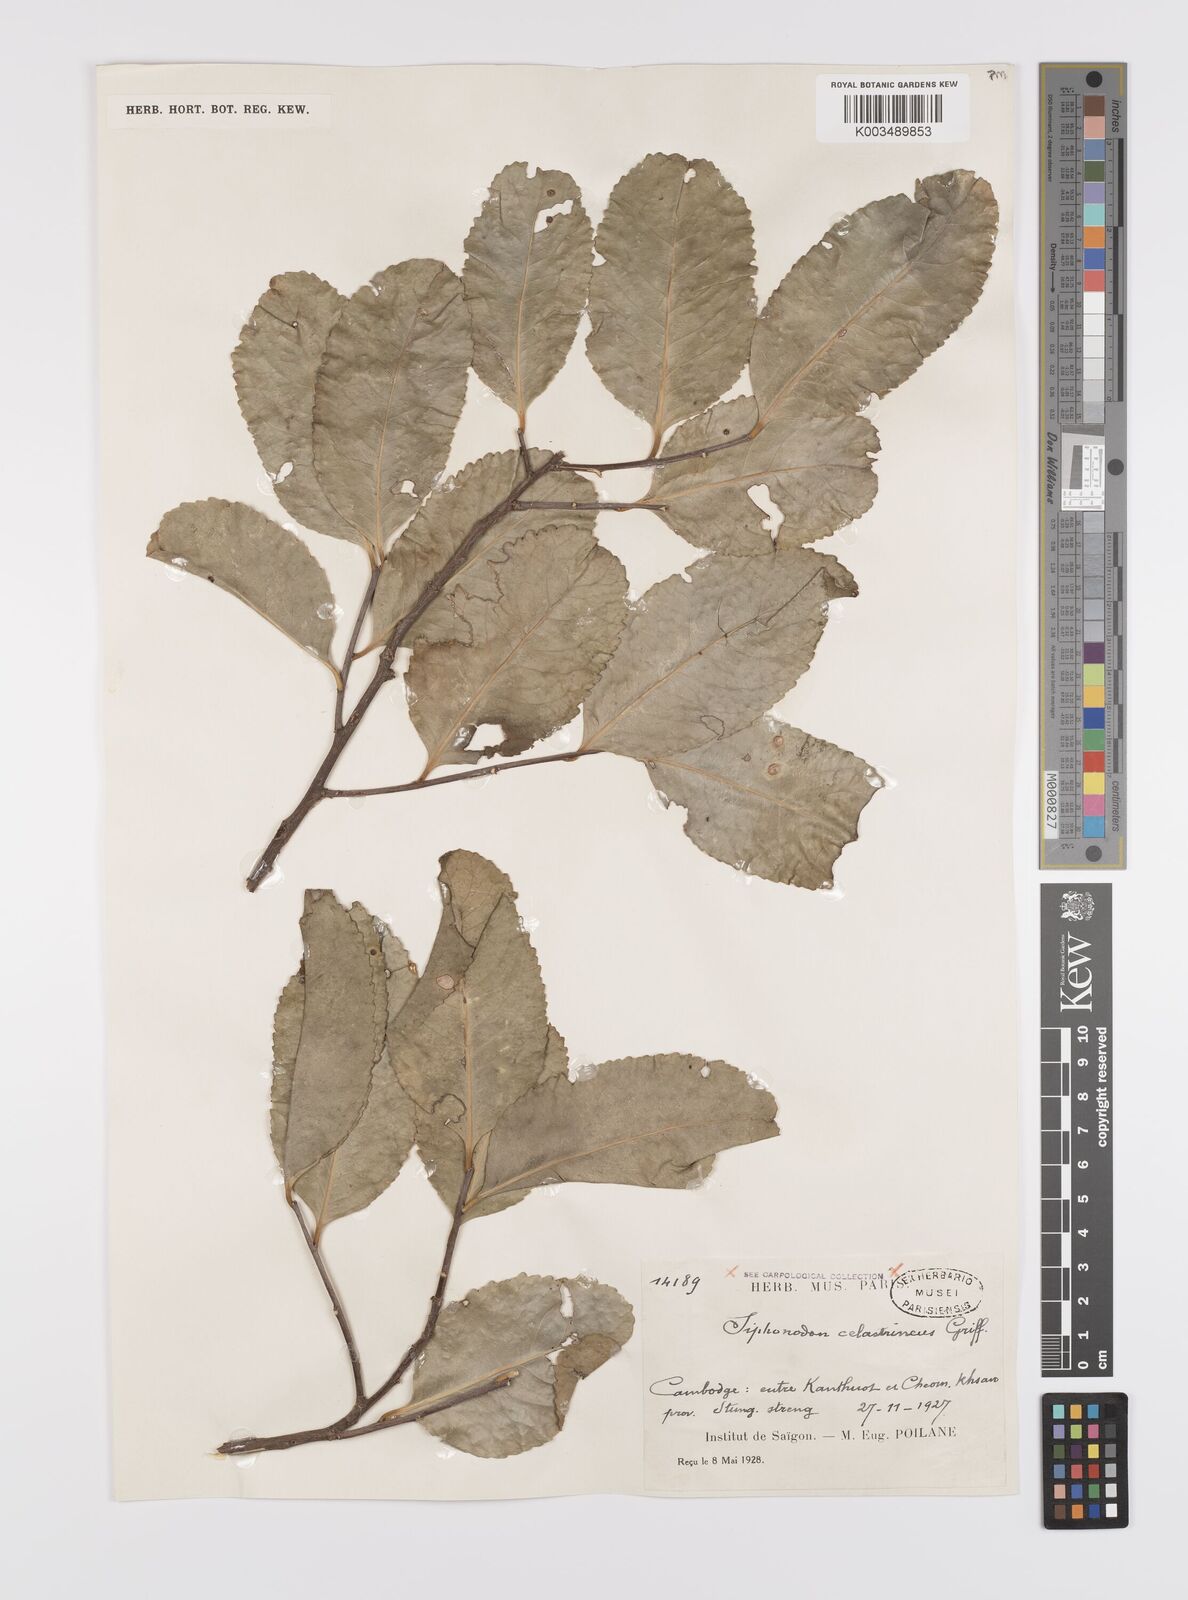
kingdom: Plantae
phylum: Tracheophyta
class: Magnoliopsida
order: Celastrales
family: Celastraceae
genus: Siphonodon
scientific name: Siphonodon celastrineus
